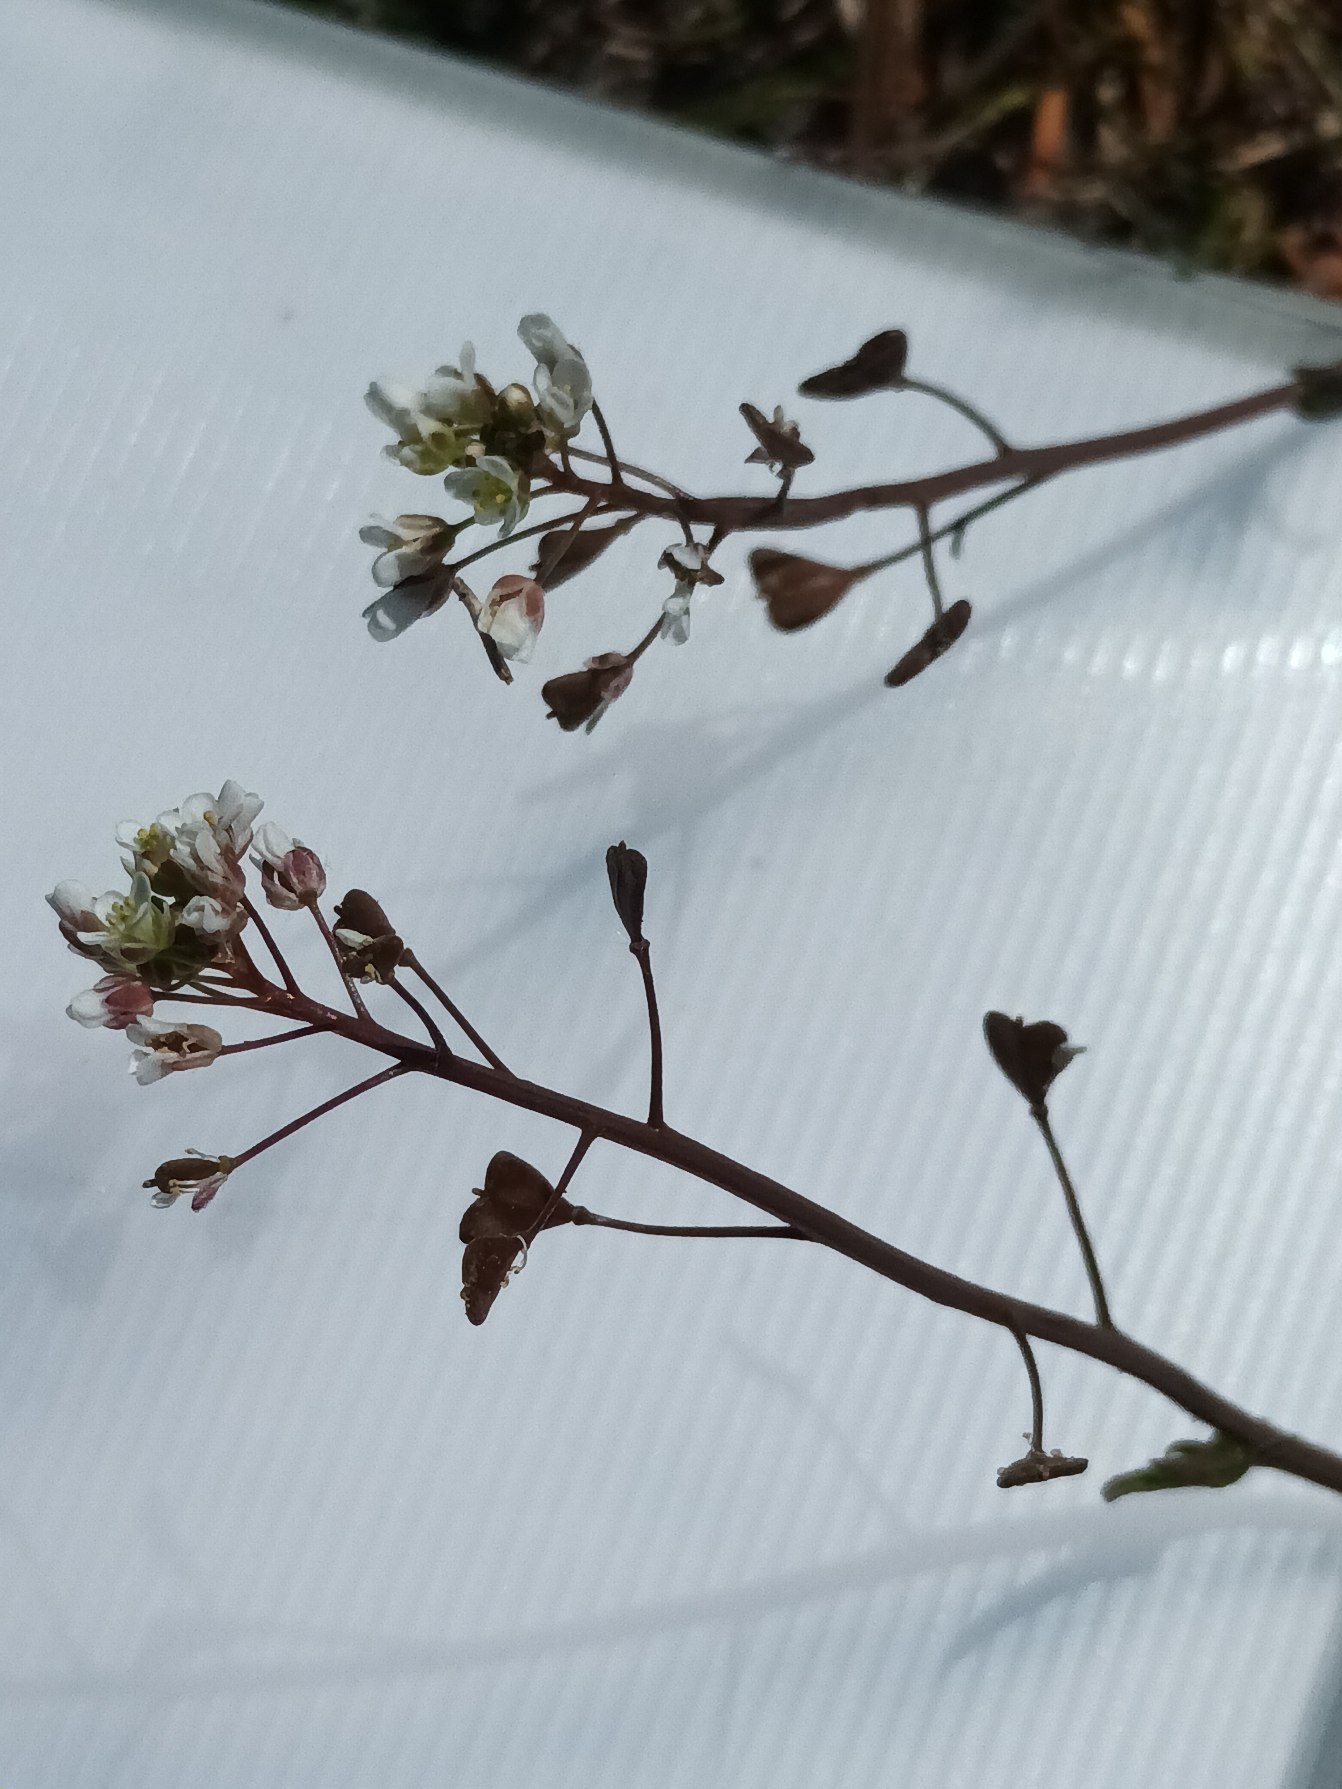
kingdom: Plantae
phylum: Tracheophyta
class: Magnoliopsida
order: Brassicales
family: Brassicaceae
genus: Capsella
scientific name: Capsella bursa-pastoris
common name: Hyrdetaske
